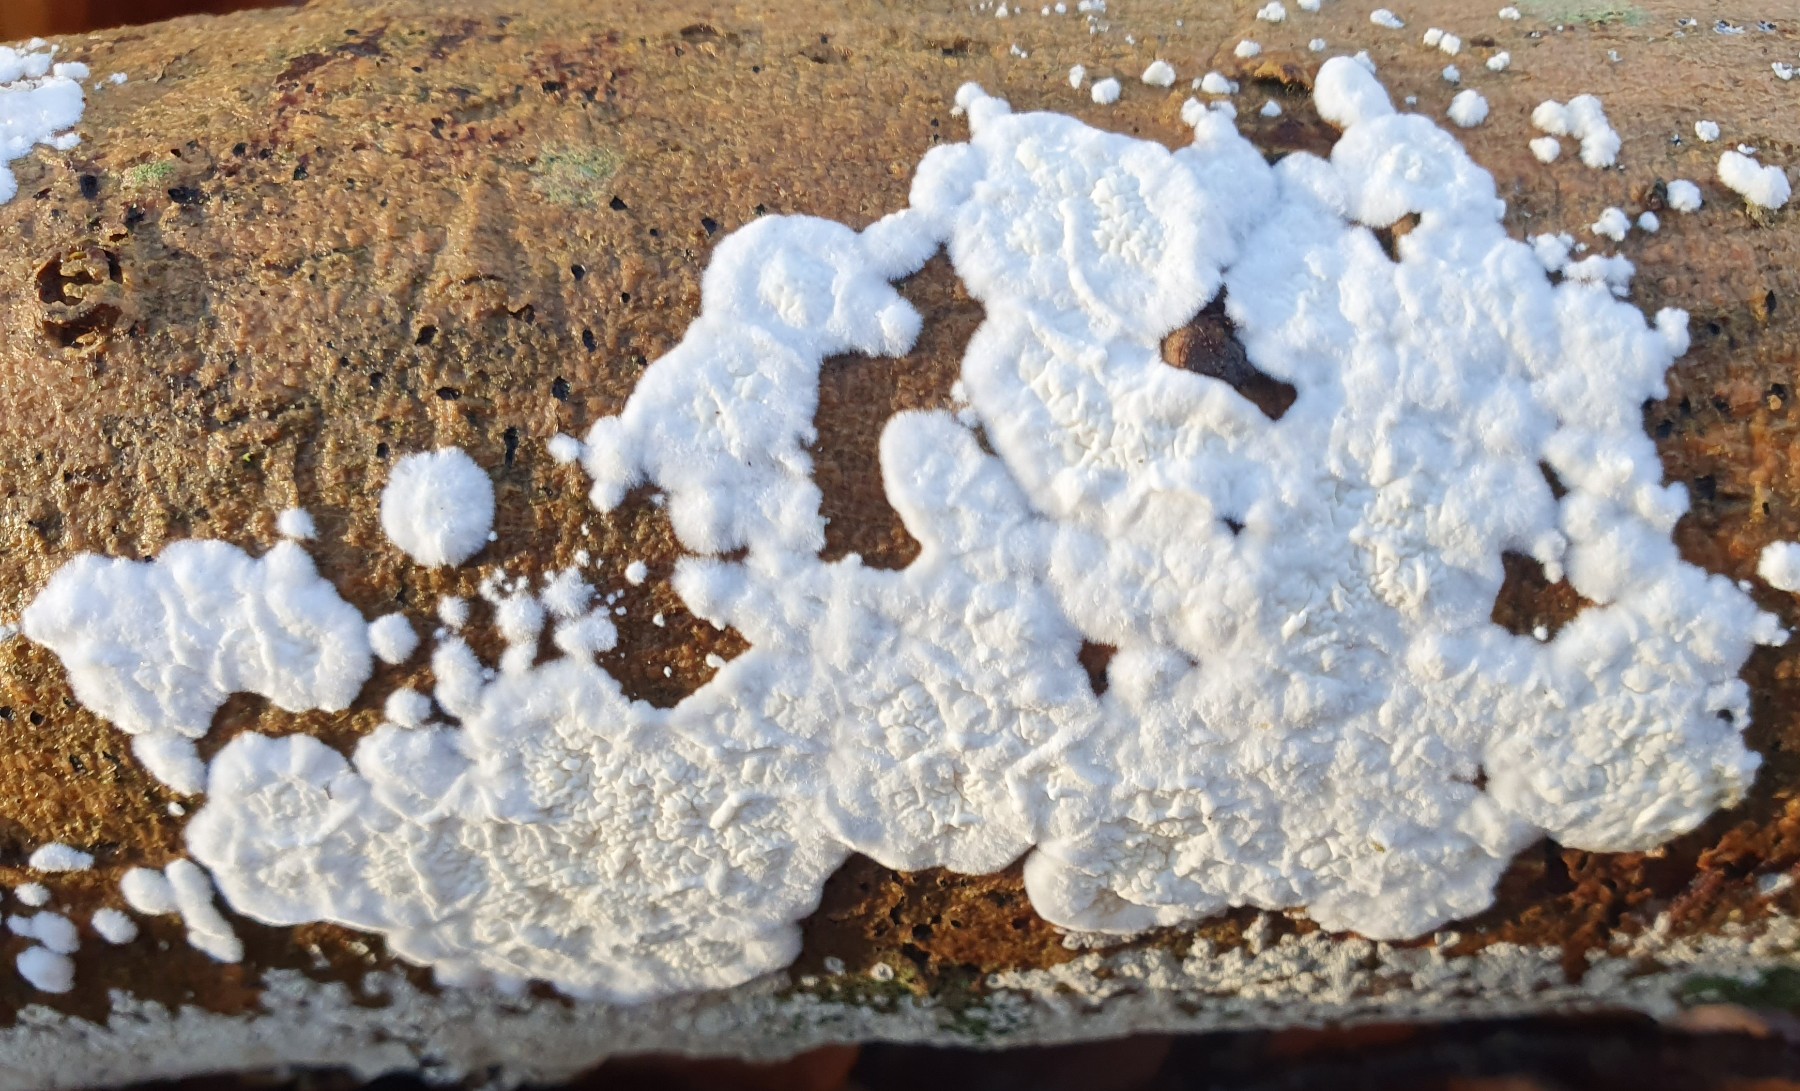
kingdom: Fungi
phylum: Basidiomycota
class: Agaricomycetes
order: Polyporales
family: Irpicaceae
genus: Byssomerulius
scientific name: Byssomerulius corium
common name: læder-åresvamp
